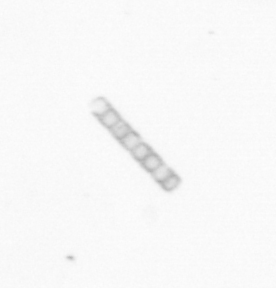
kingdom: Chromista
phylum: Ochrophyta
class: Bacillariophyceae
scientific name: Bacillariophyceae
